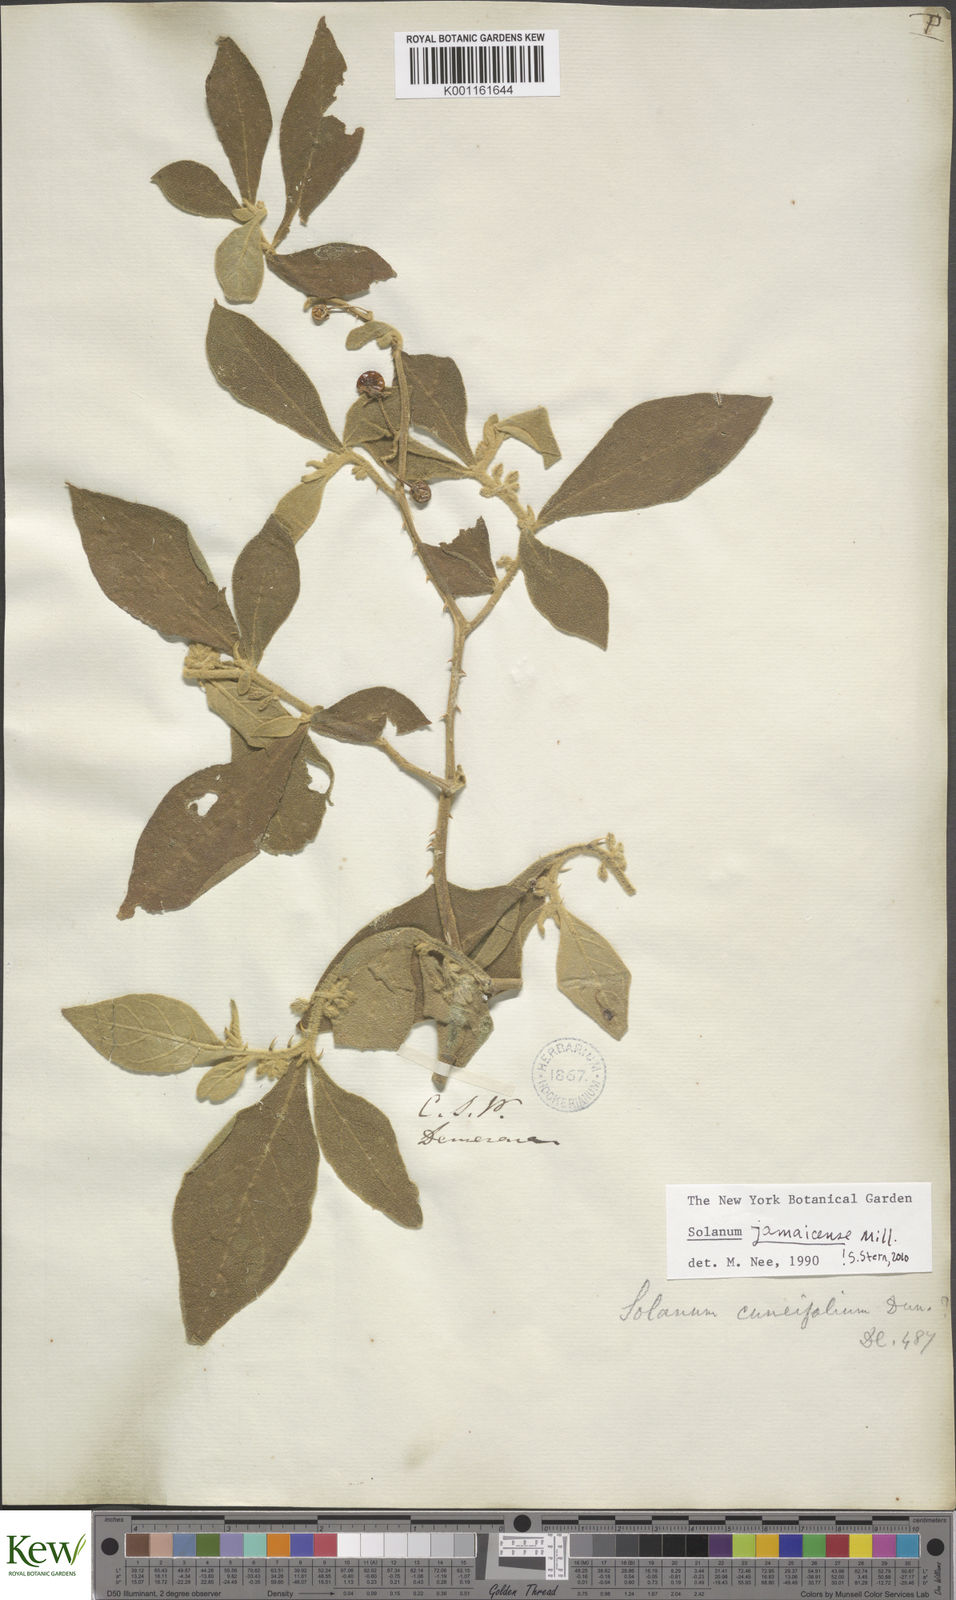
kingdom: Plantae
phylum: Tracheophyta
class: Magnoliopsida
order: Solanales
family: Solanaceae
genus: Solanum
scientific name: Solanum jamaicense
